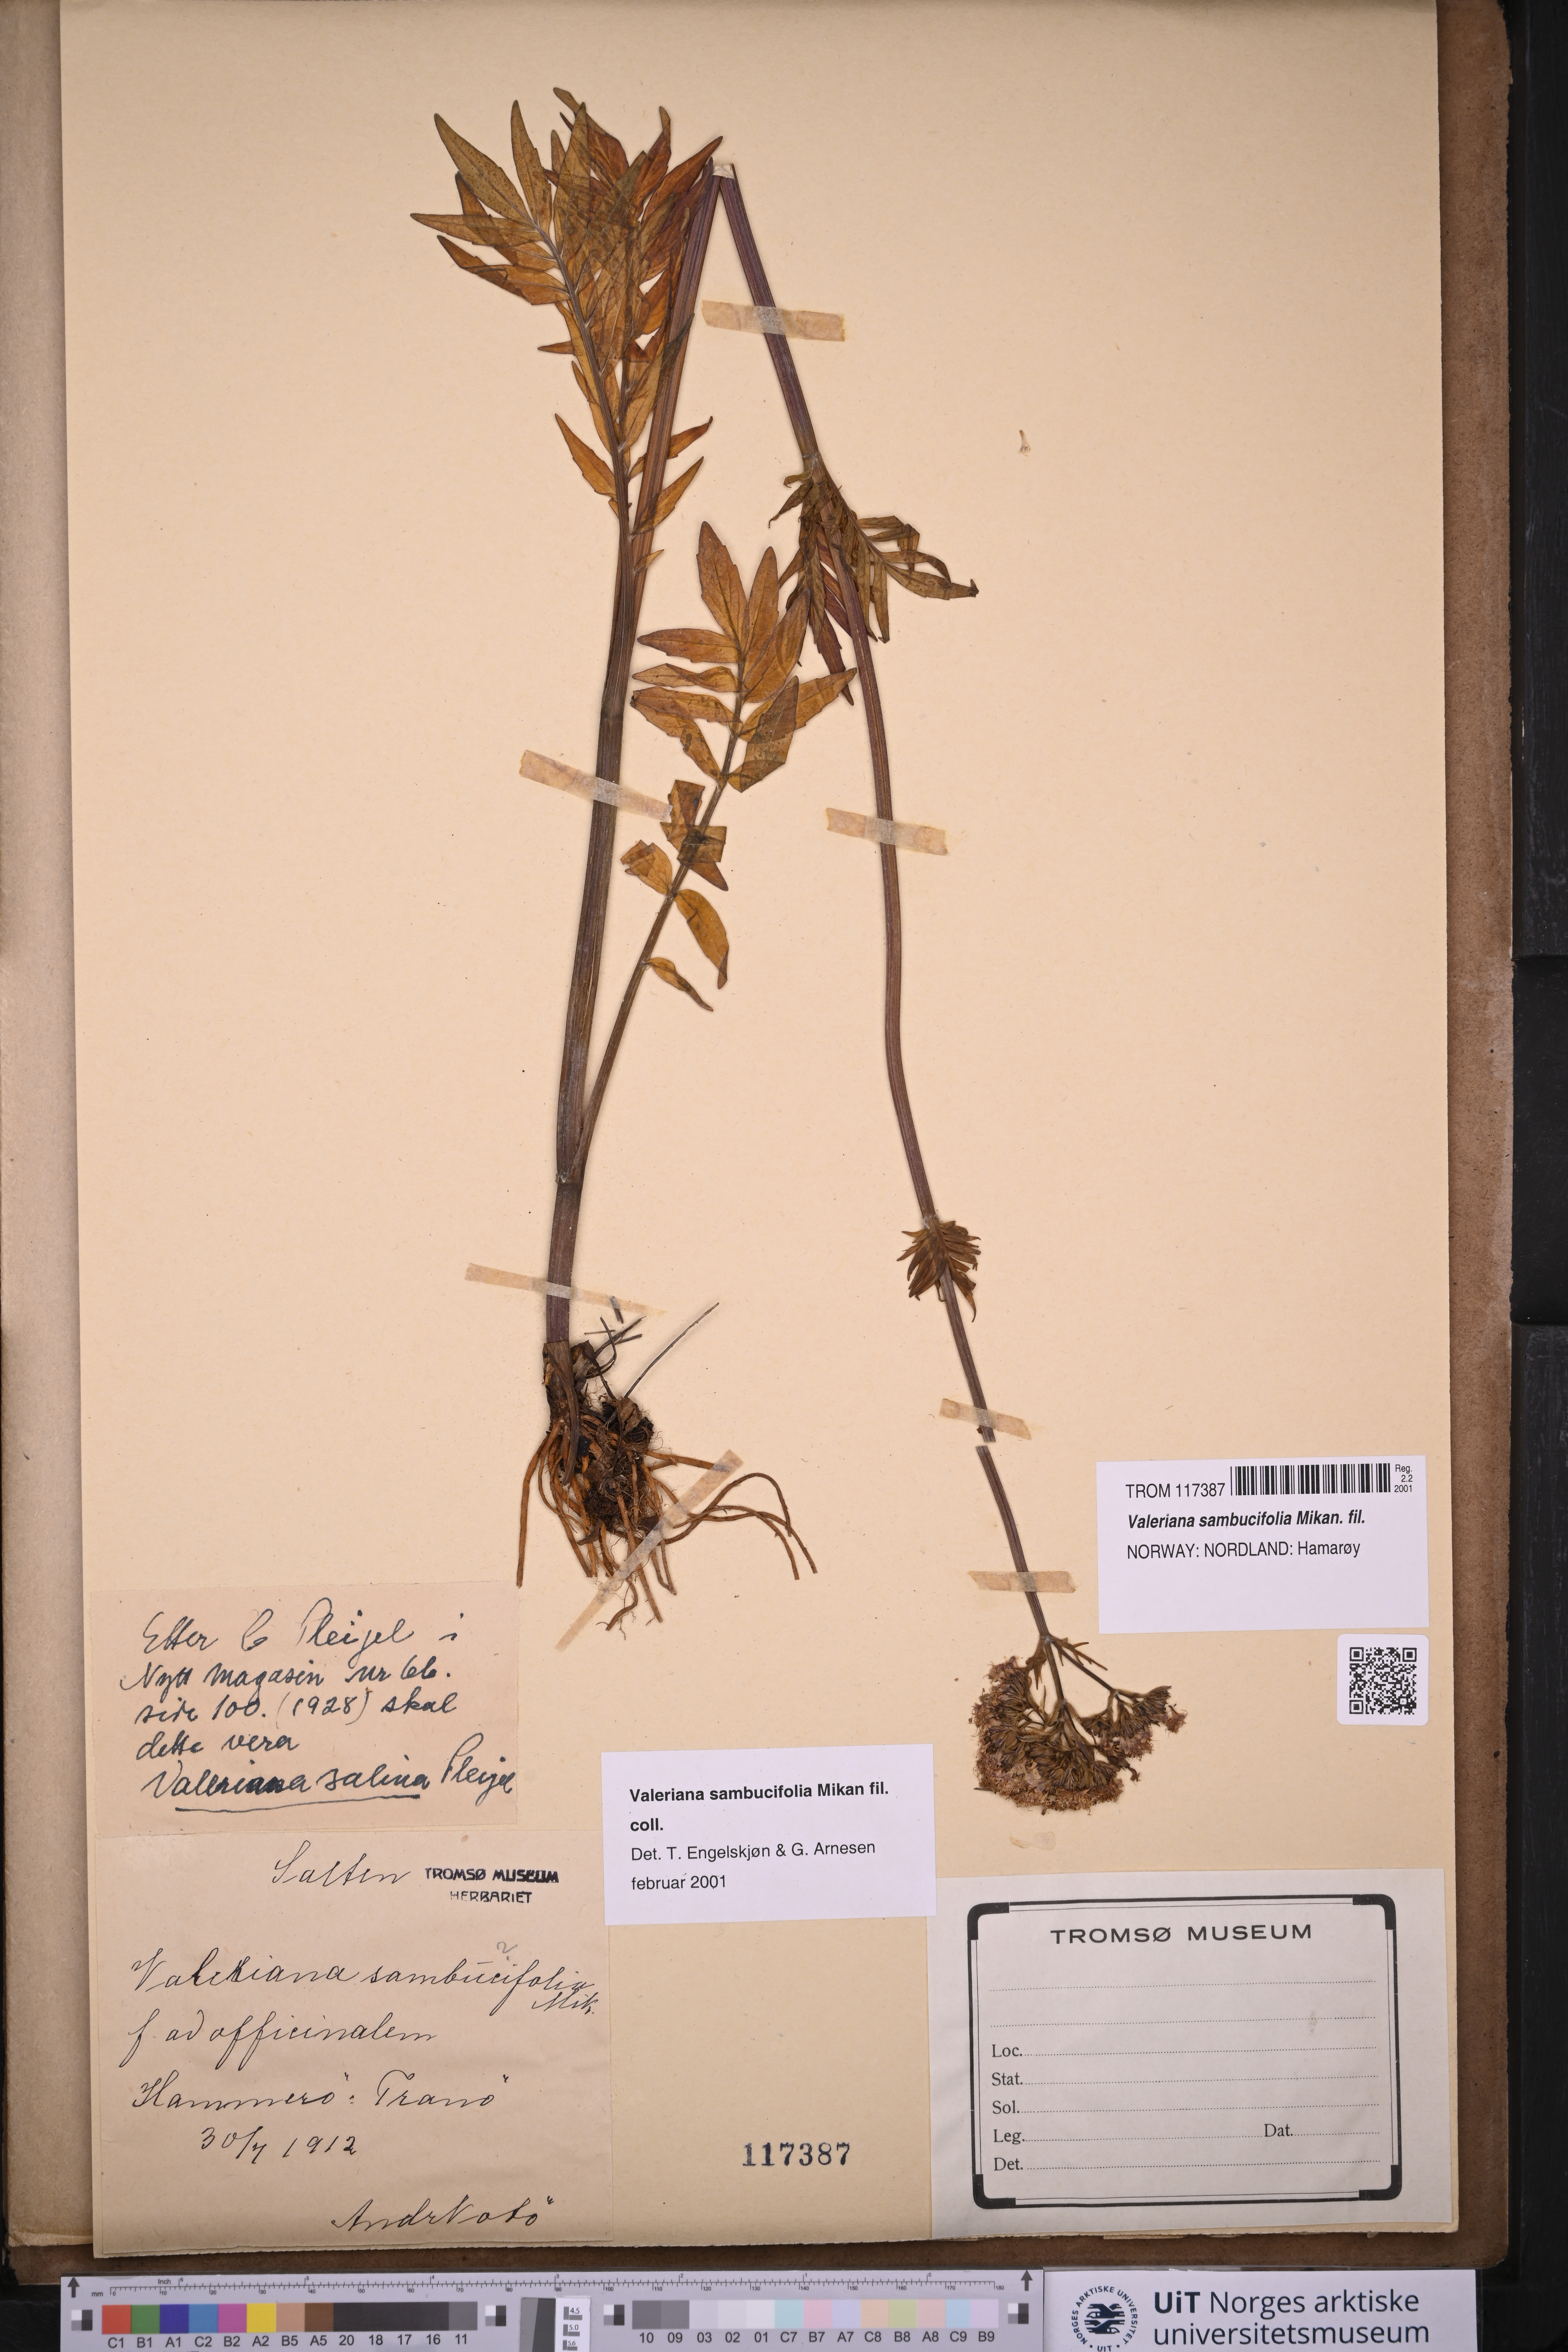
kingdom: Plantae
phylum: Tracheophyta
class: Magnoliopsida
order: Dipsacales
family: Caprifoliaceae
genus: Valeriana
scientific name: Valeriana excelsa
